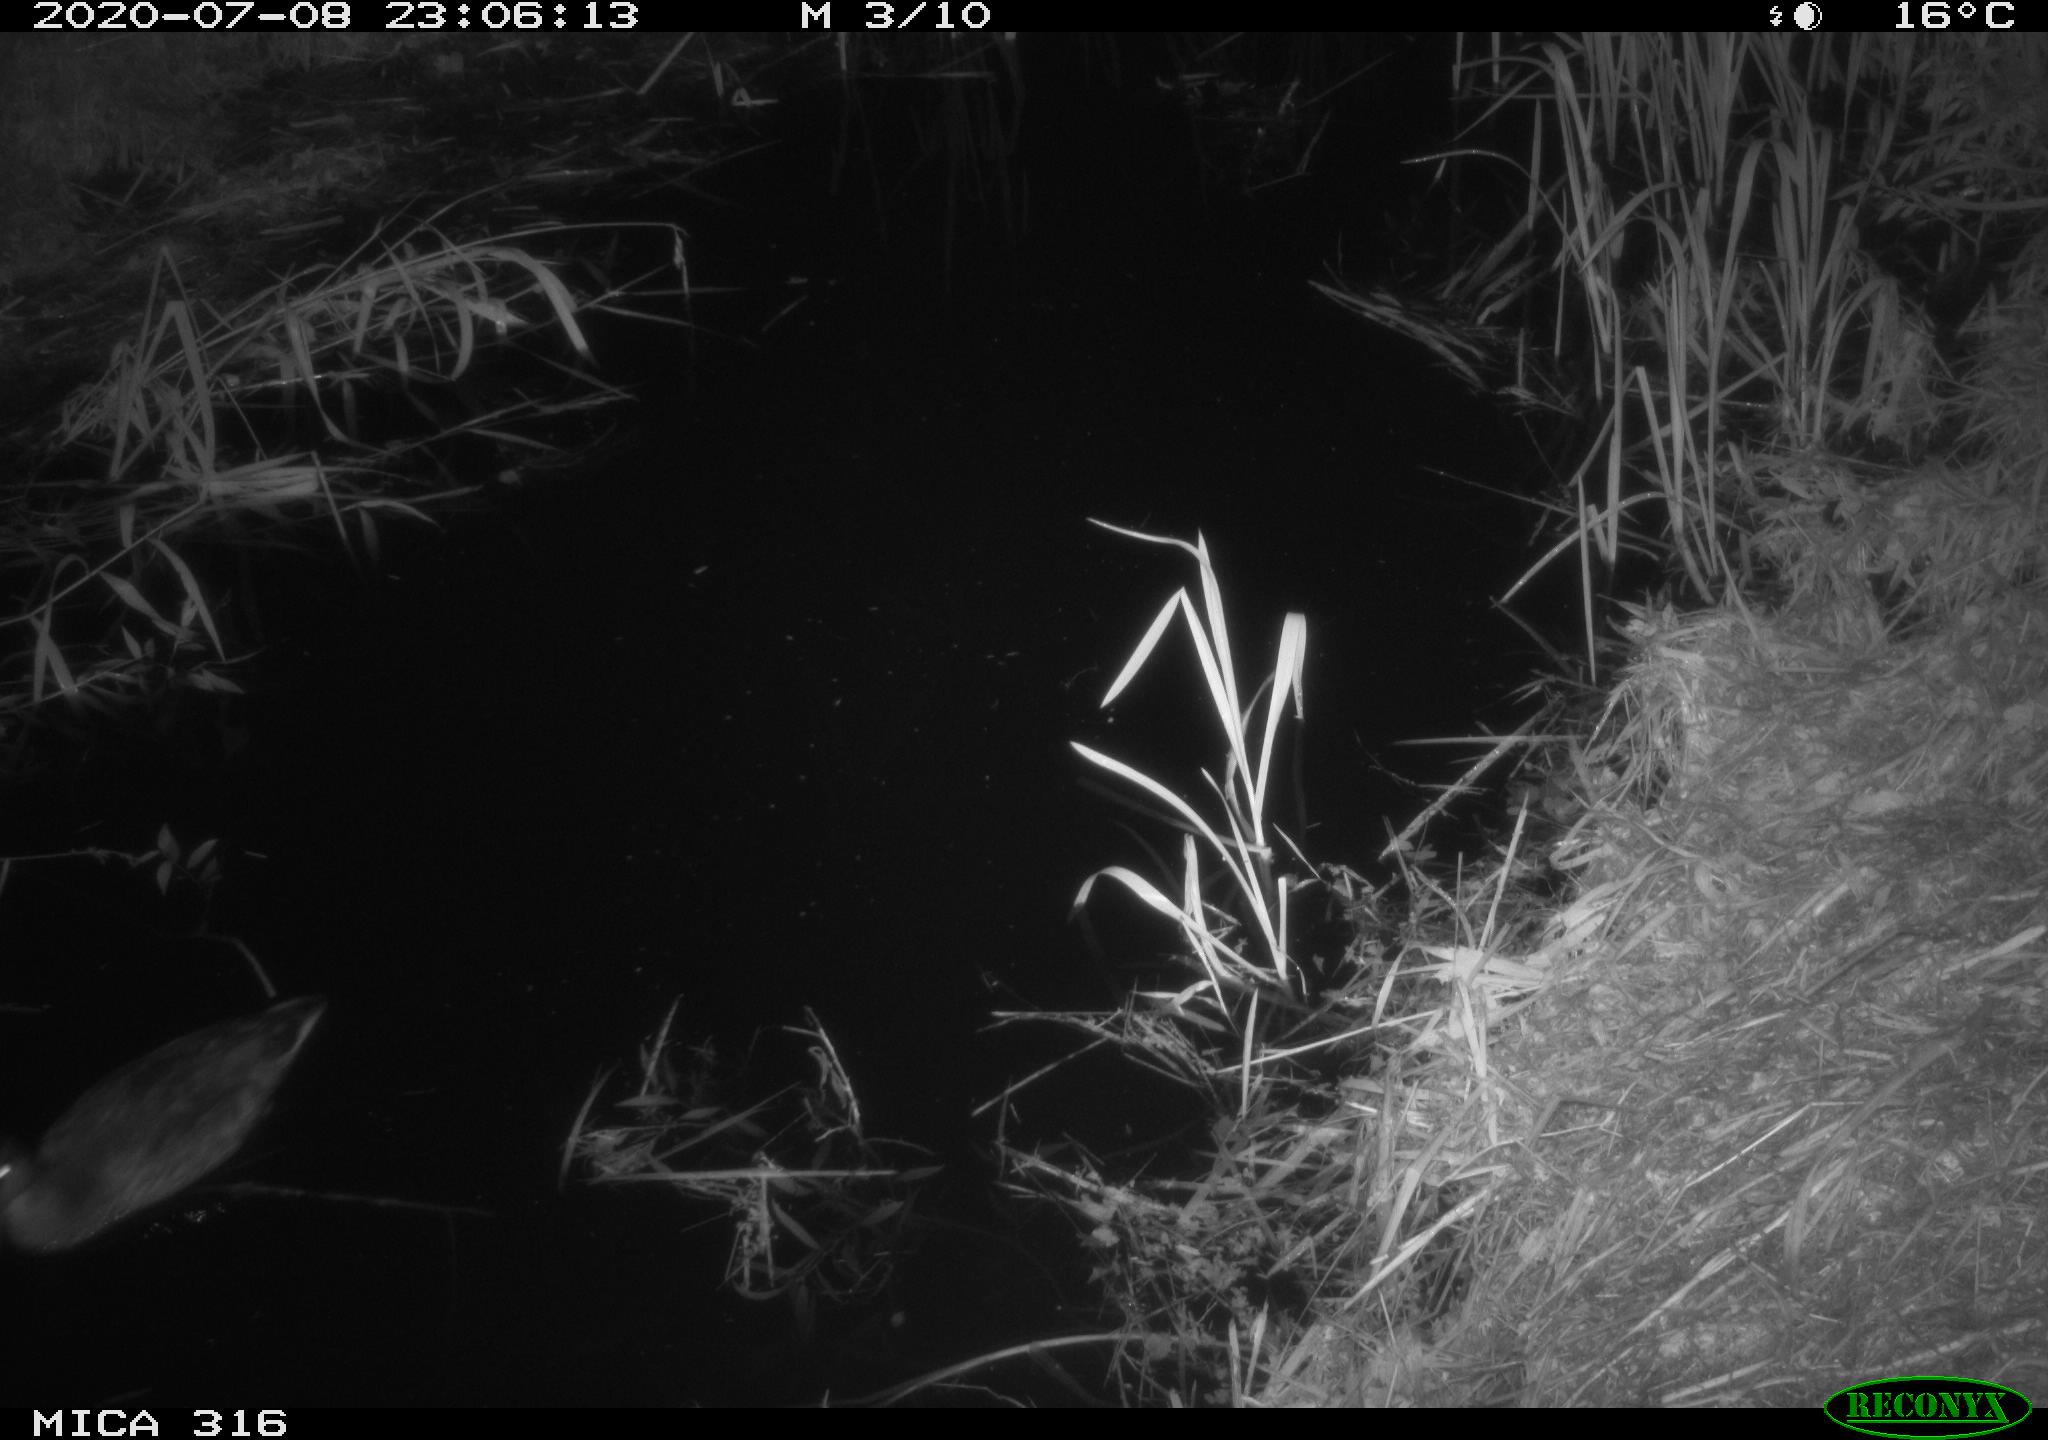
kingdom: Animalia
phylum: Chordata
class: Aves
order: Anseriformes
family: Anatidae
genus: Anas
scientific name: Anas platyrhynchos
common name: Mallard
